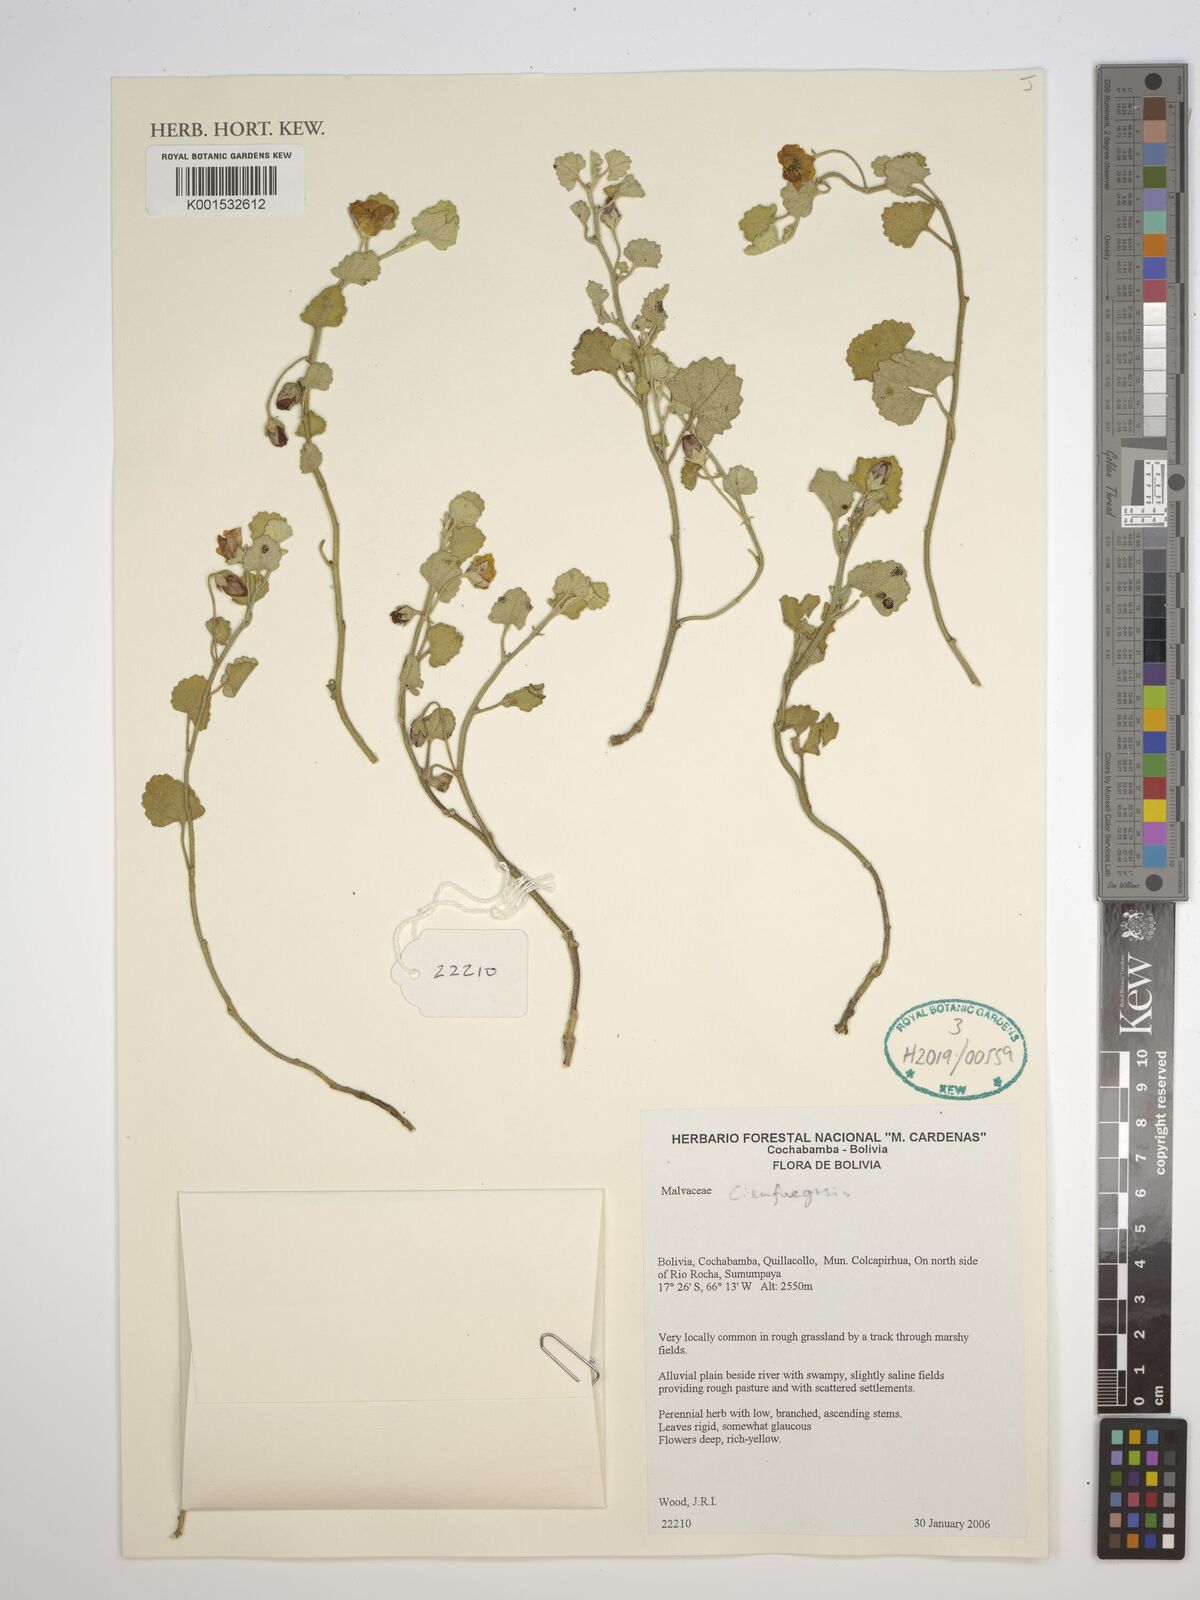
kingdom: Plantae
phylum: Tracheophyta
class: Magnoliopsida
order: Malvales
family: Malvaceae
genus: Cienfuegosia
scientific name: Cienfuegosia
